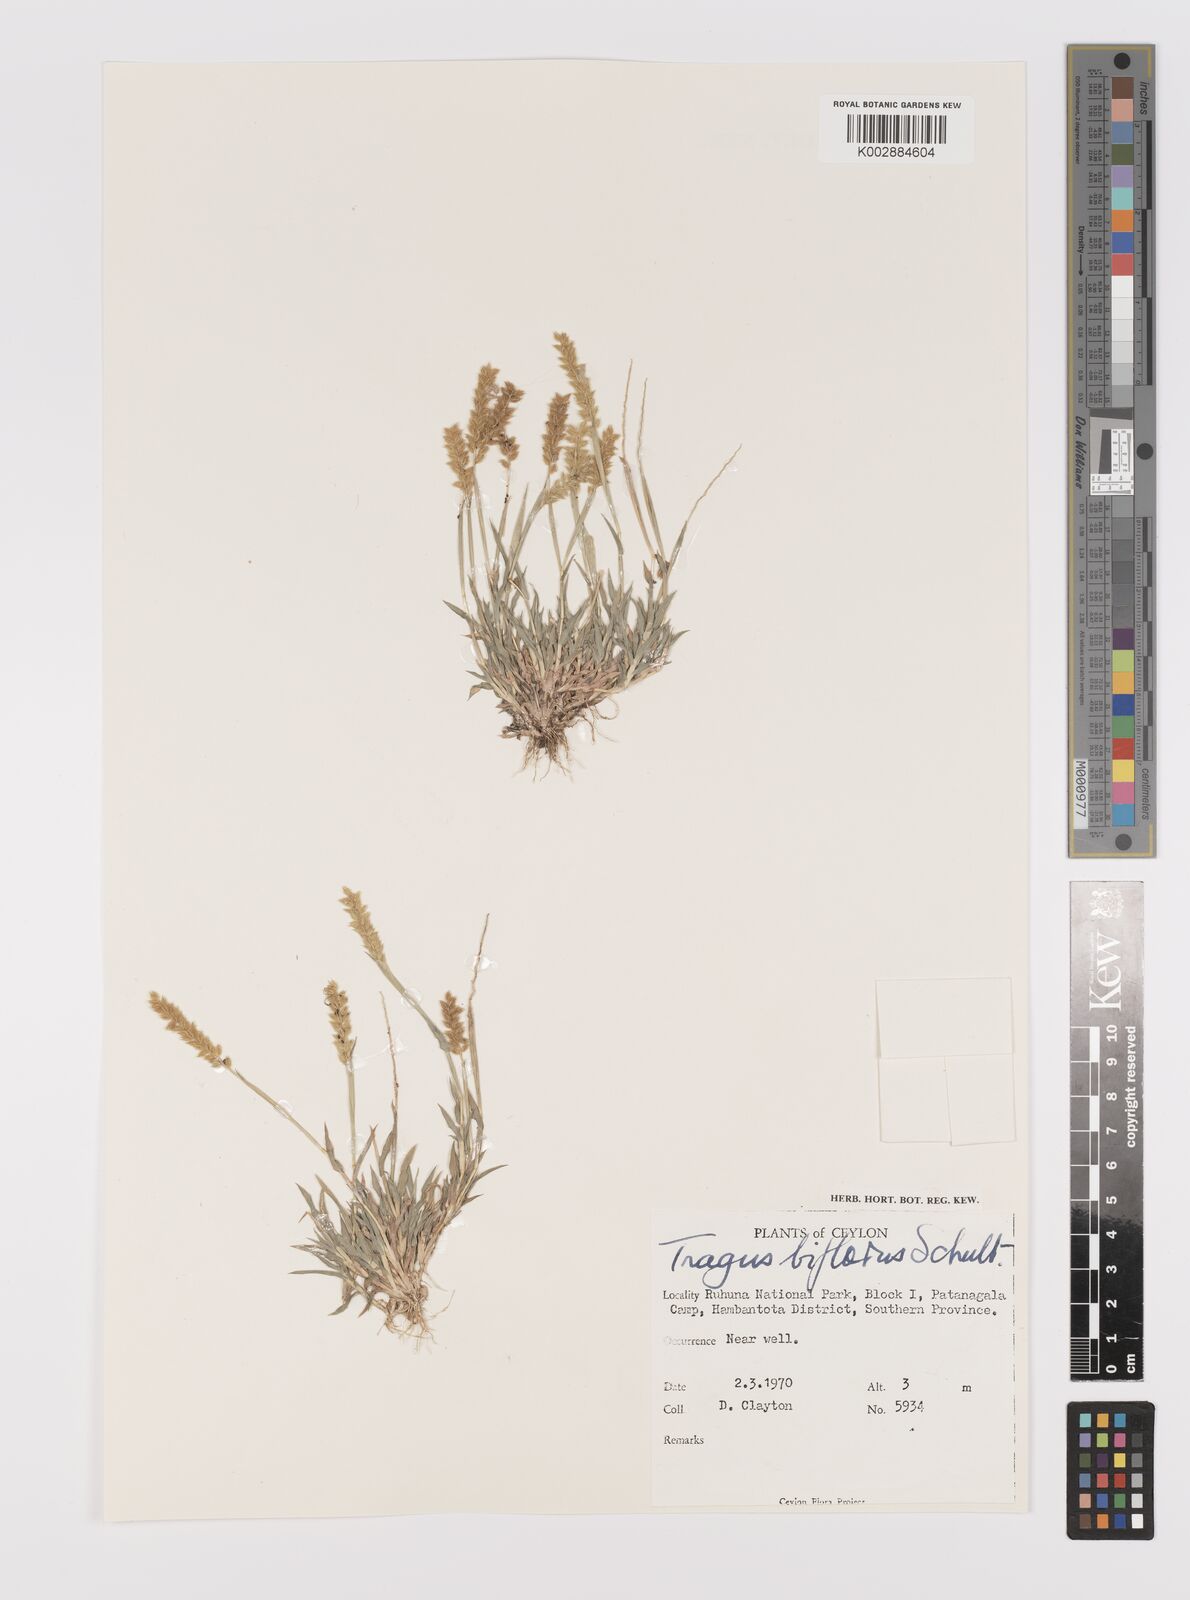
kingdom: Plantae
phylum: Tracheophyta
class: Liliopsida
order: Poales
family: Poaceae
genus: Tragus
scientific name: Tragus mongolorum
